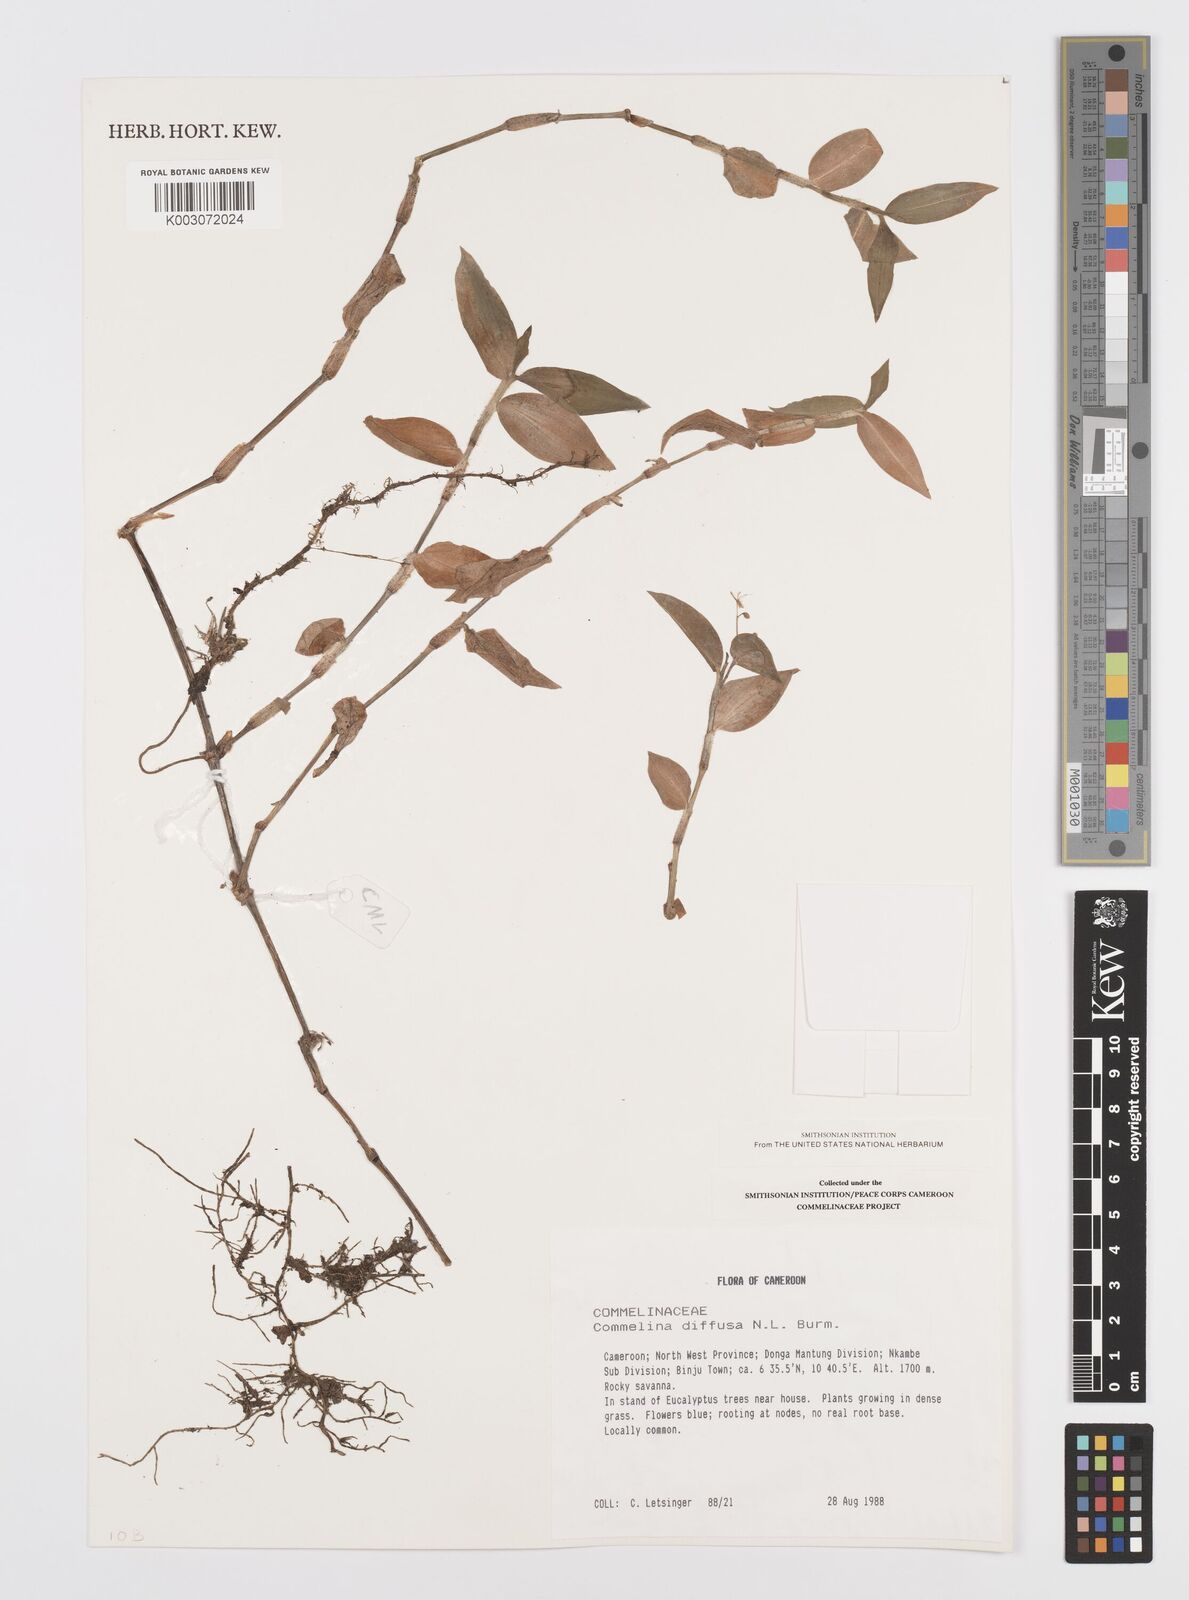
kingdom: Plantae
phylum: Tracheophyta
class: Liliopsida
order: Commelinales
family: Commelinaceae
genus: Commelina
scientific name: Commelina diffusa
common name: Climbing dayflower
